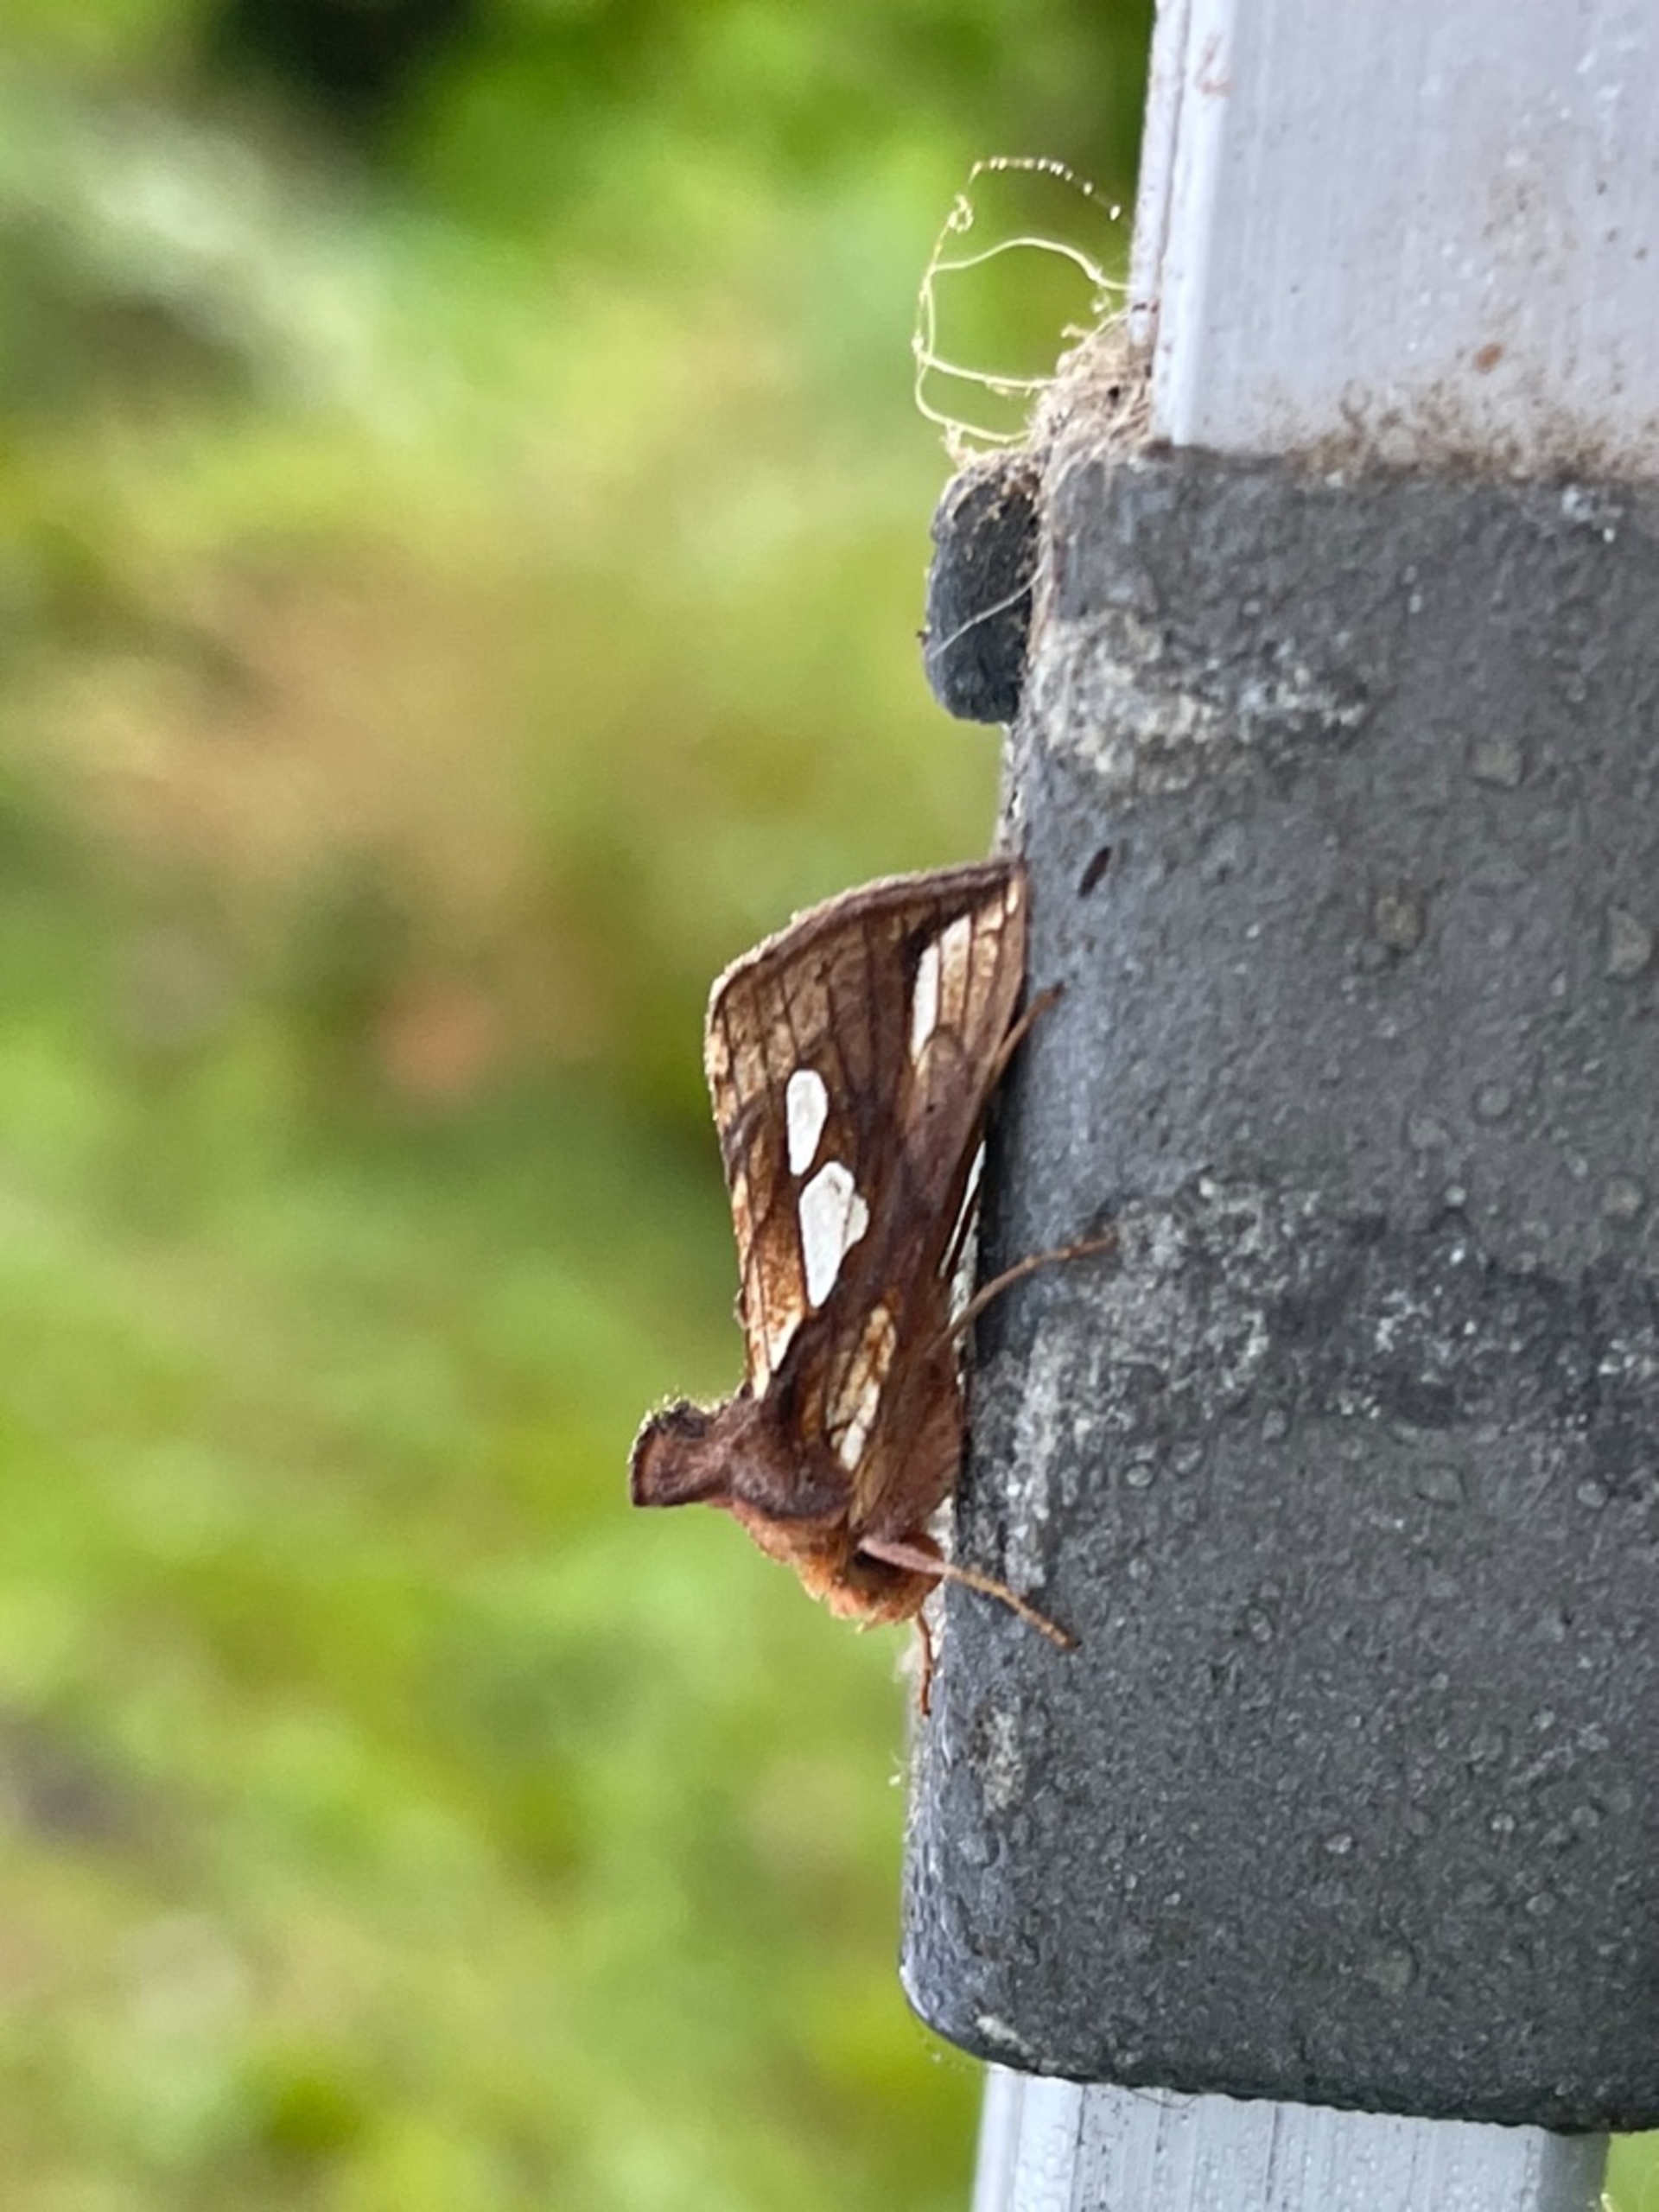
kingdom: Animalia
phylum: Arthropoda
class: Insecta
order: Lepidoptera
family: Noctuidae
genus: Plusia
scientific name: Plusia festucae
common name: Svingelugle
